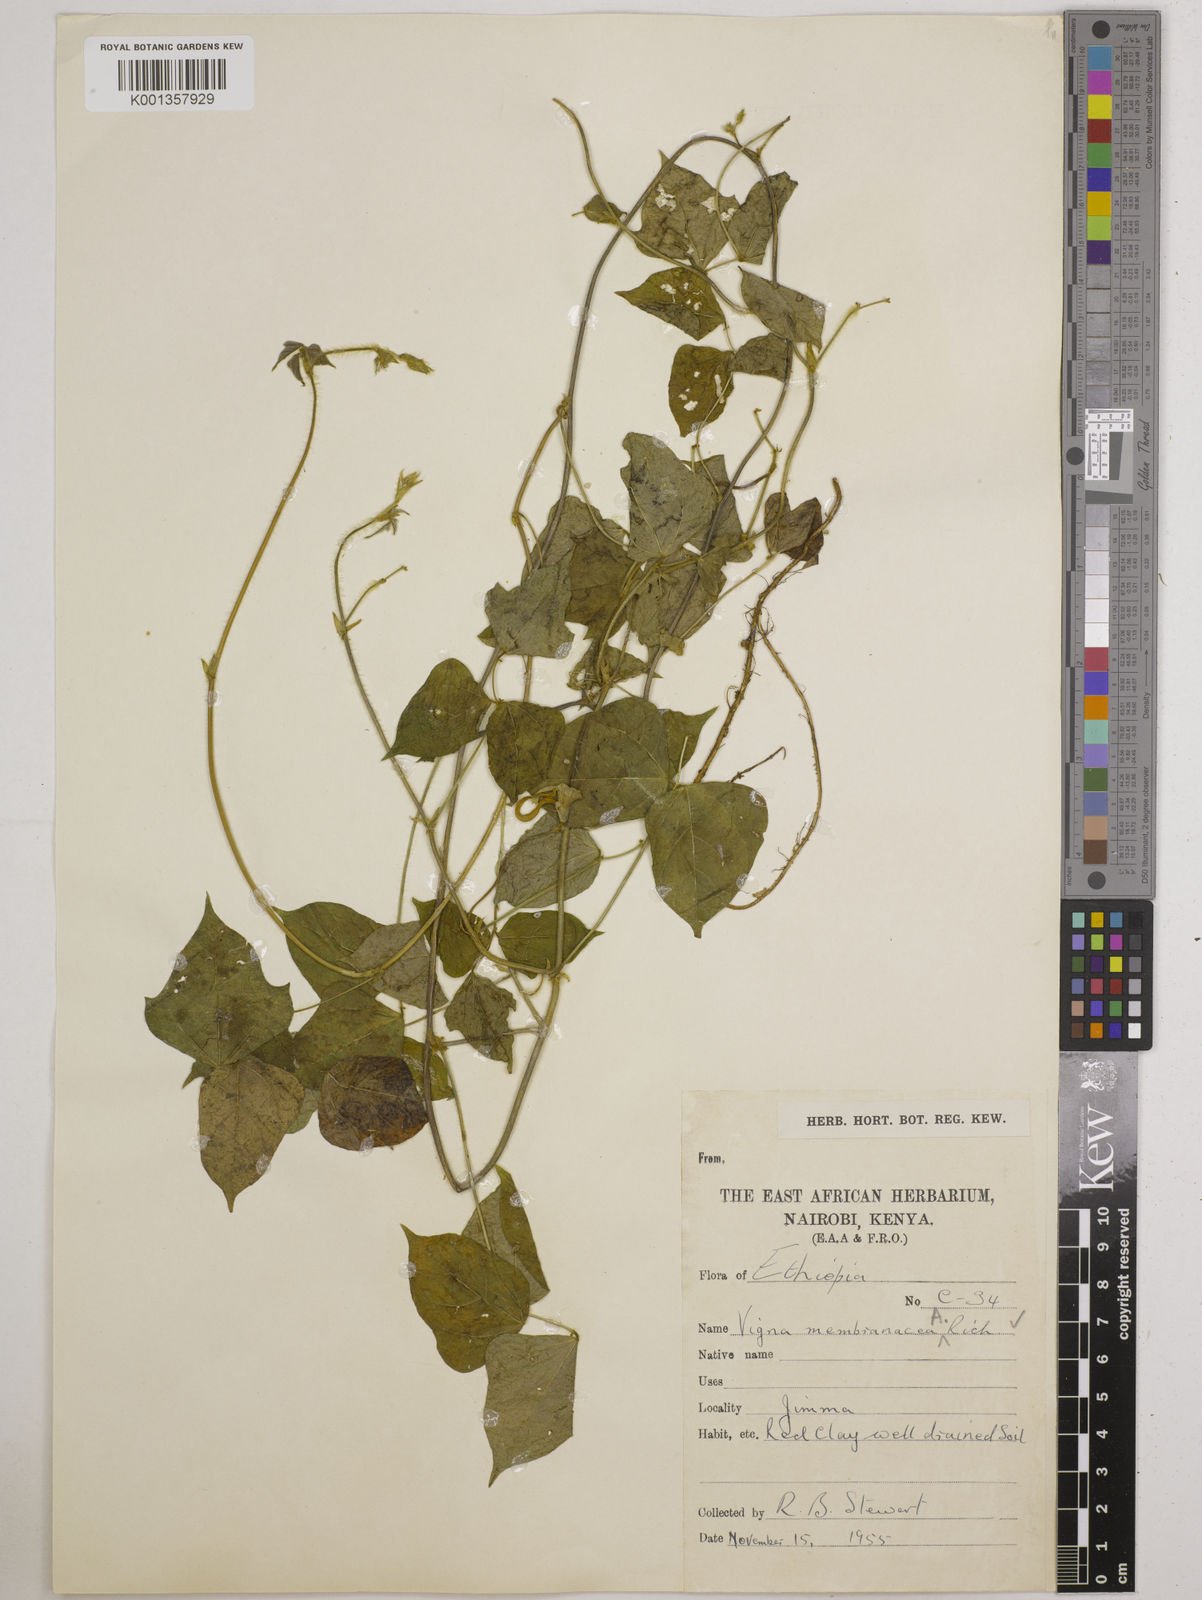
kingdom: Plantae
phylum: Tracheophyta
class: Magnoliopsida
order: Fabales
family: Fabaceae
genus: Vigna
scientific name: Vigna membranacea
